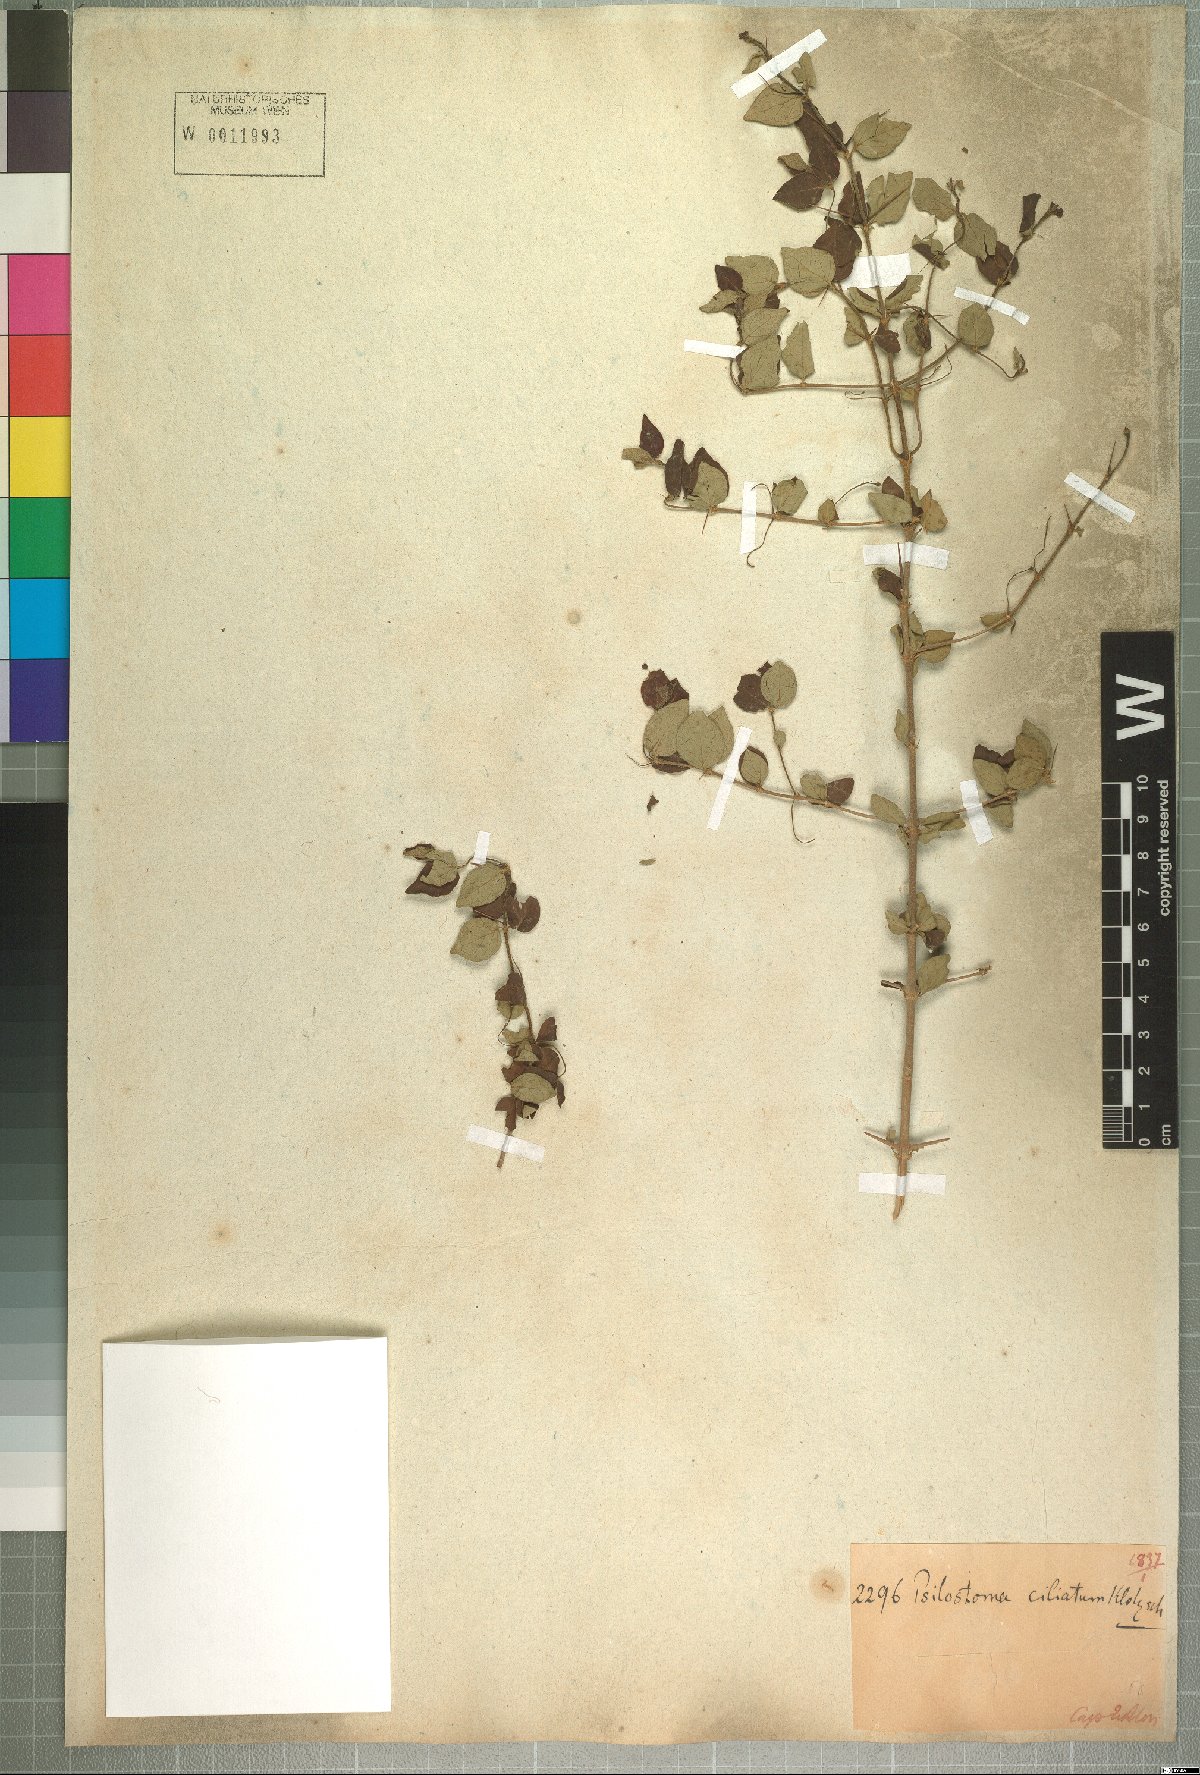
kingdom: Plantae
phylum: Tracheophyta
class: Magnoliopsida
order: Gentianales
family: Rubiaceae
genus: Canthium
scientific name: Canthium ciliatum
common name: Hairy turkey-berry
